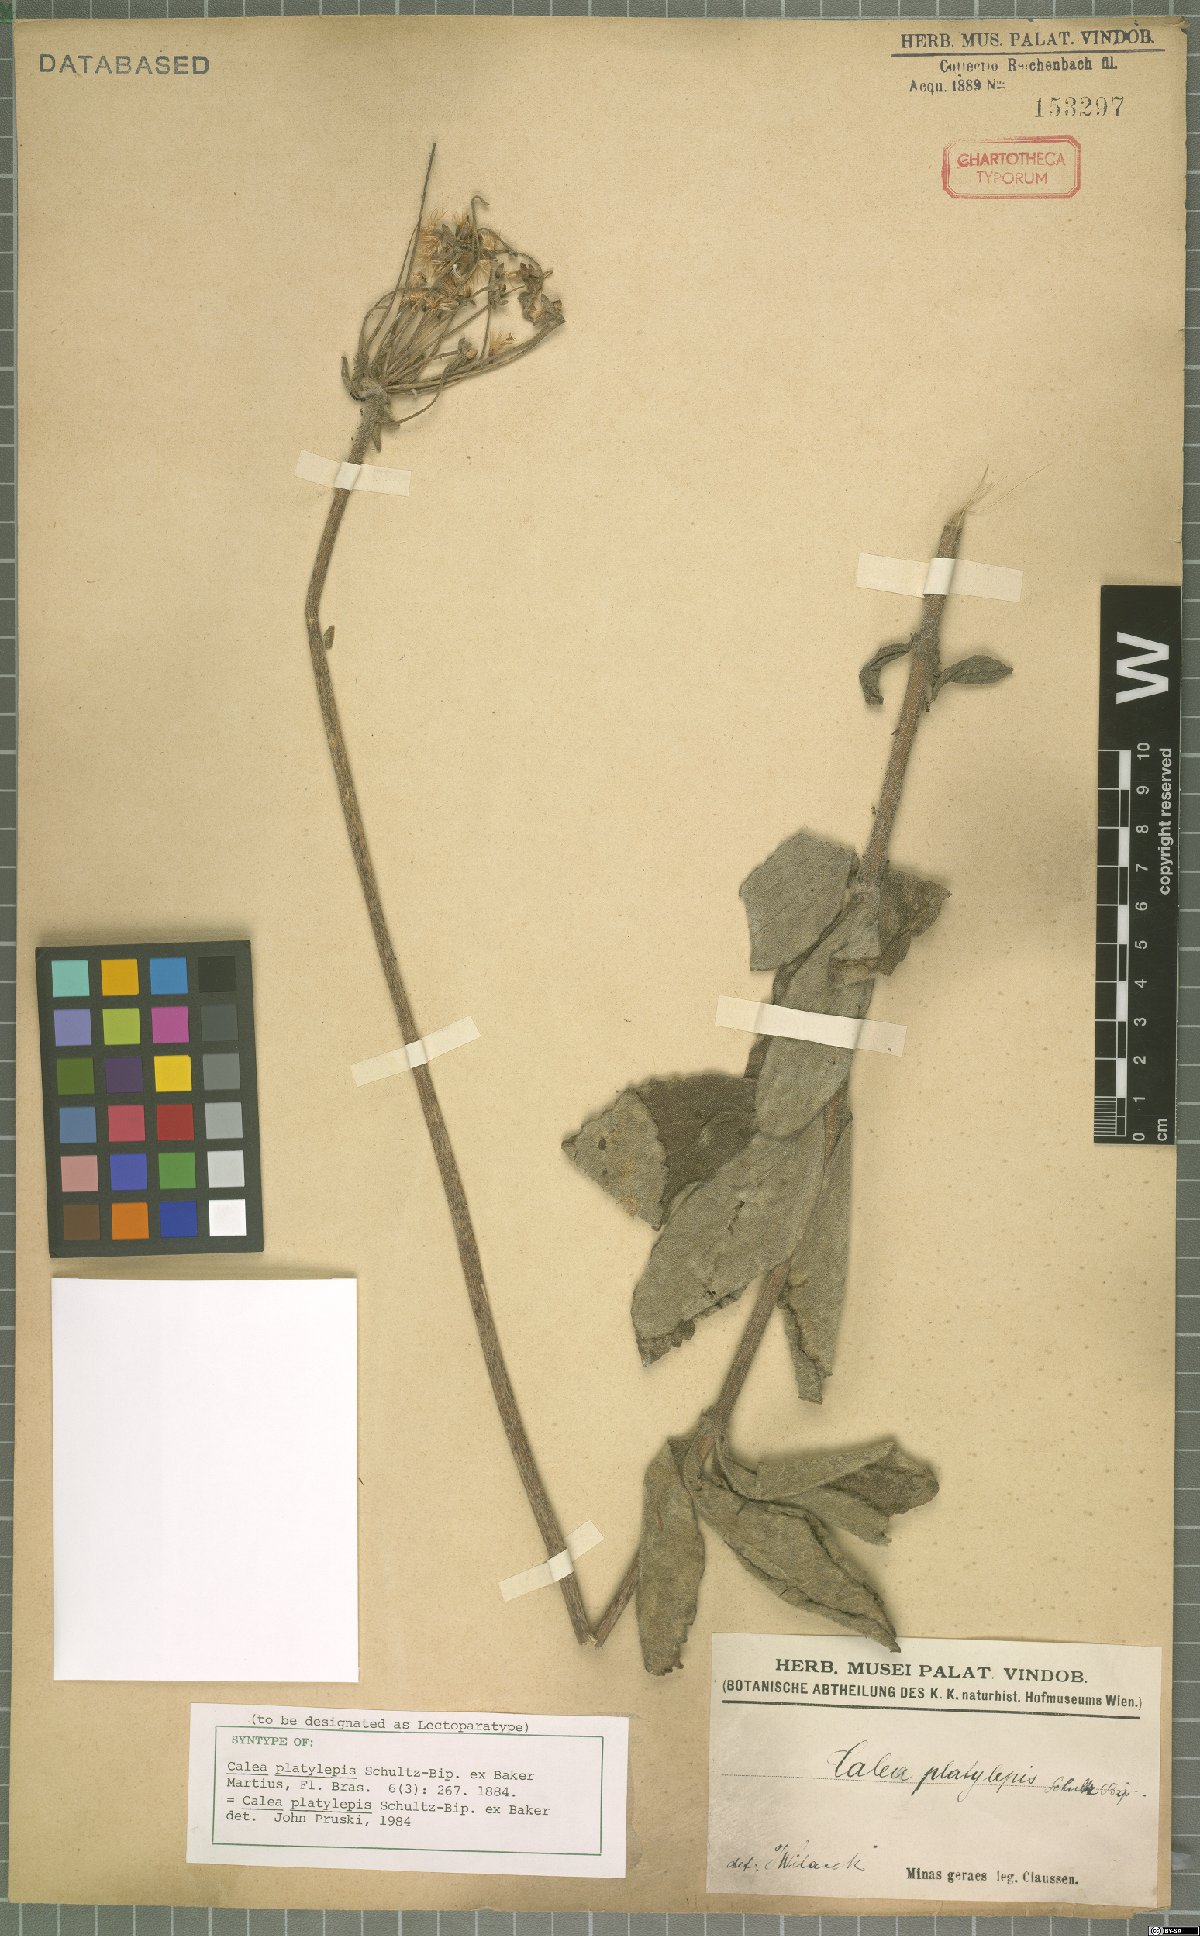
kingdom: Plantae
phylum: Tracheophyta
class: Magnoliopsida
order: Asterales
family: Asteraceae
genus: Calea
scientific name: Calea mediterranea
